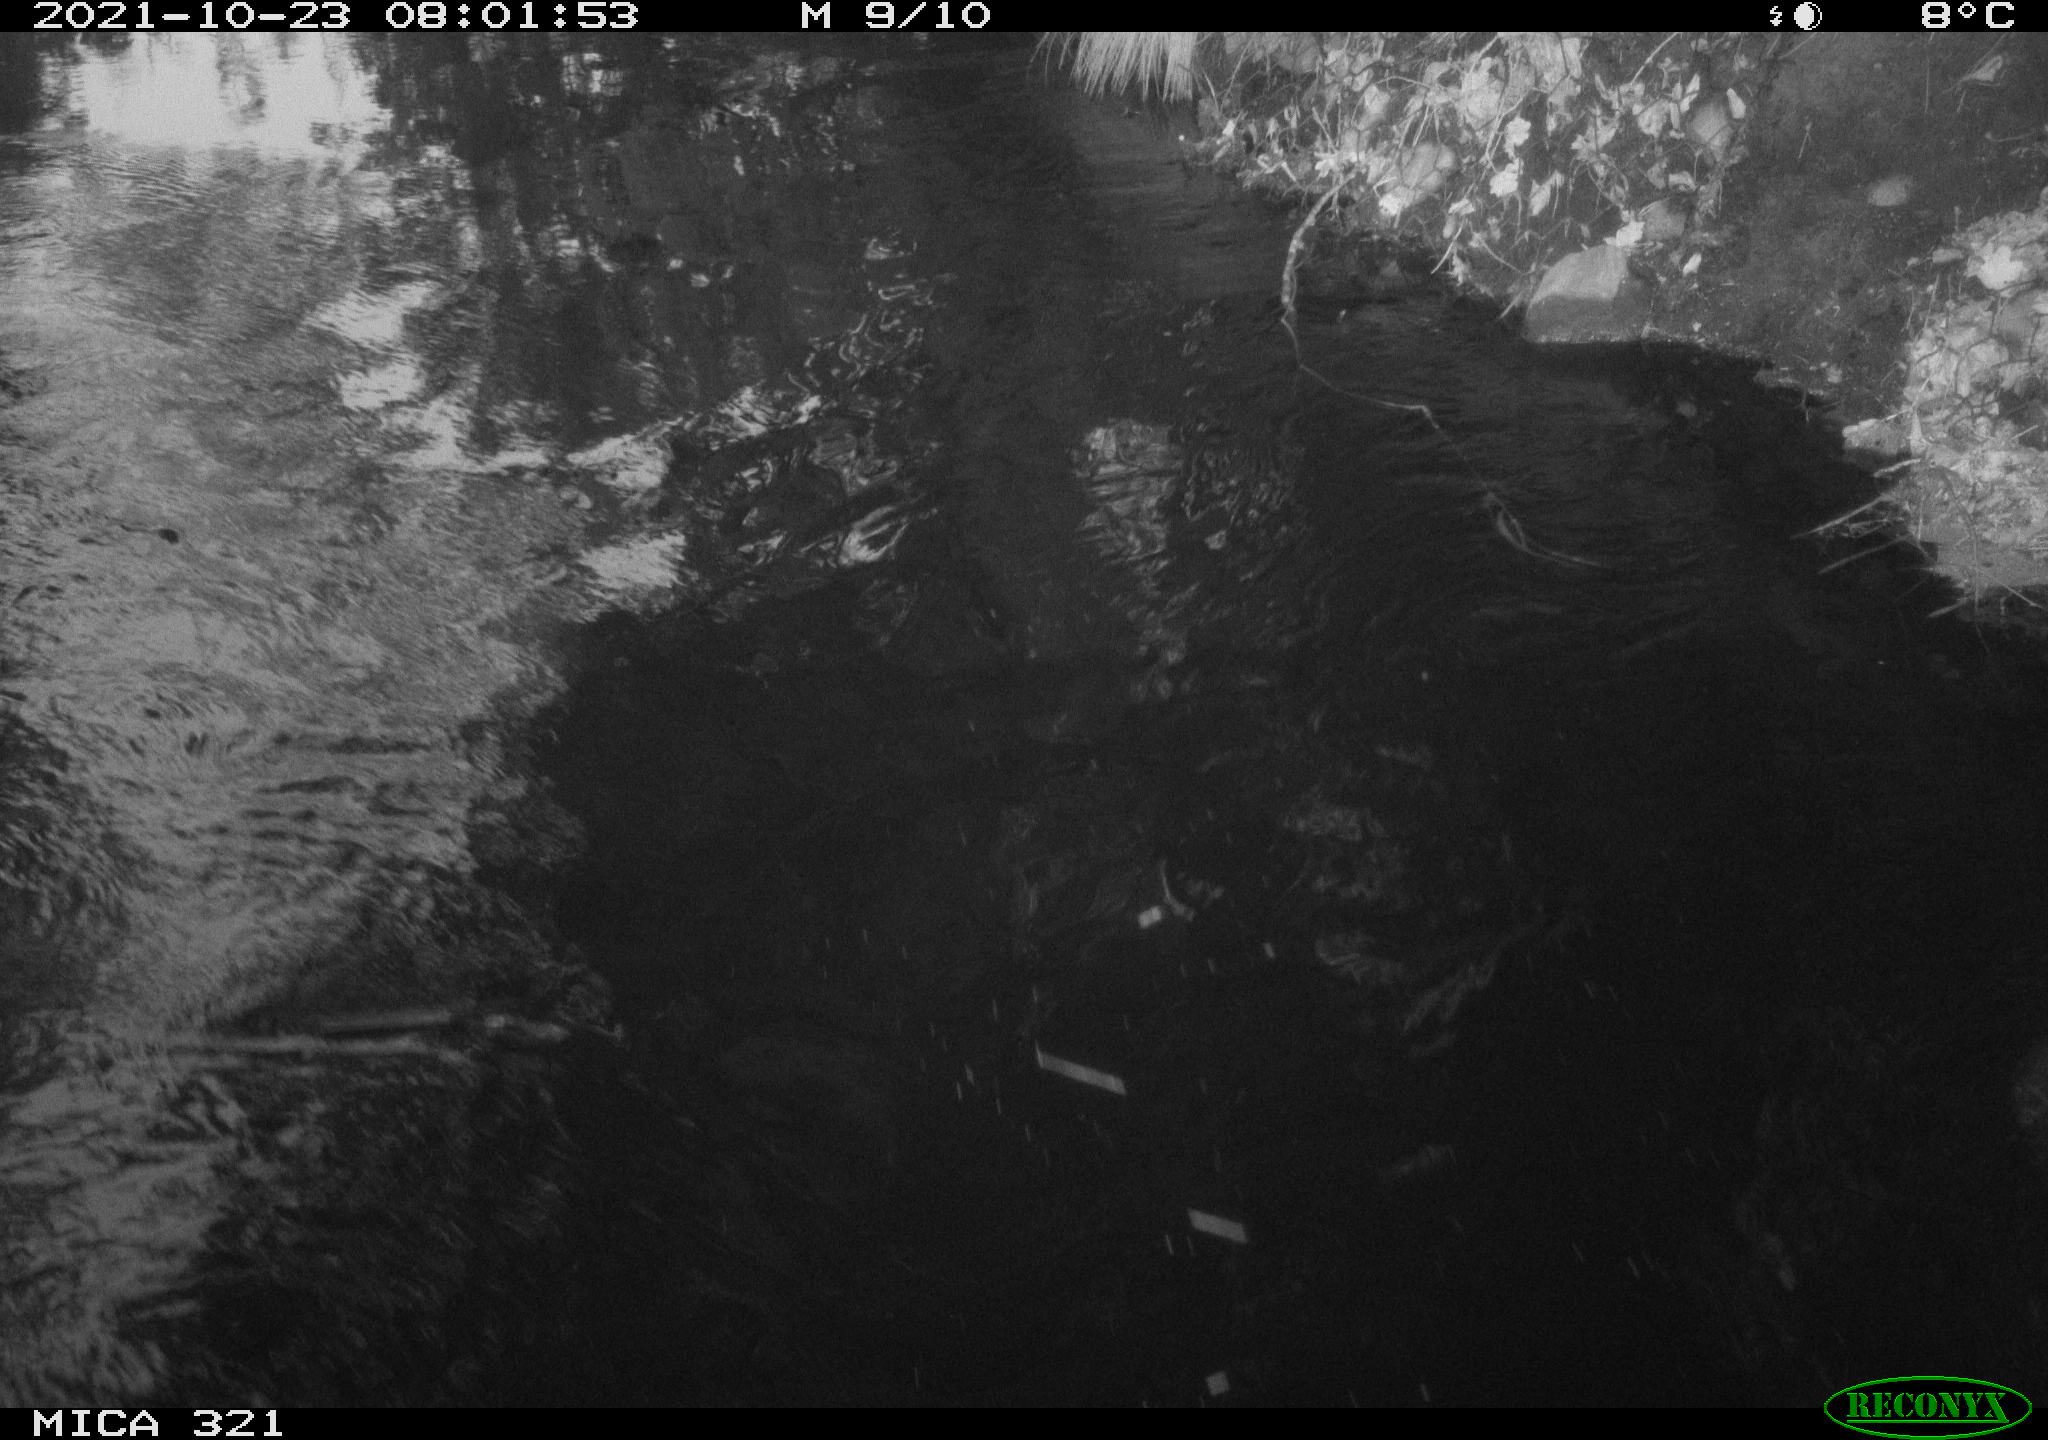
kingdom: Animalia
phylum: Chordata
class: Aves
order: Anseriformes
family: Anatidae
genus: Anas
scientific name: Anas platyrhynchos
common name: Mallard
